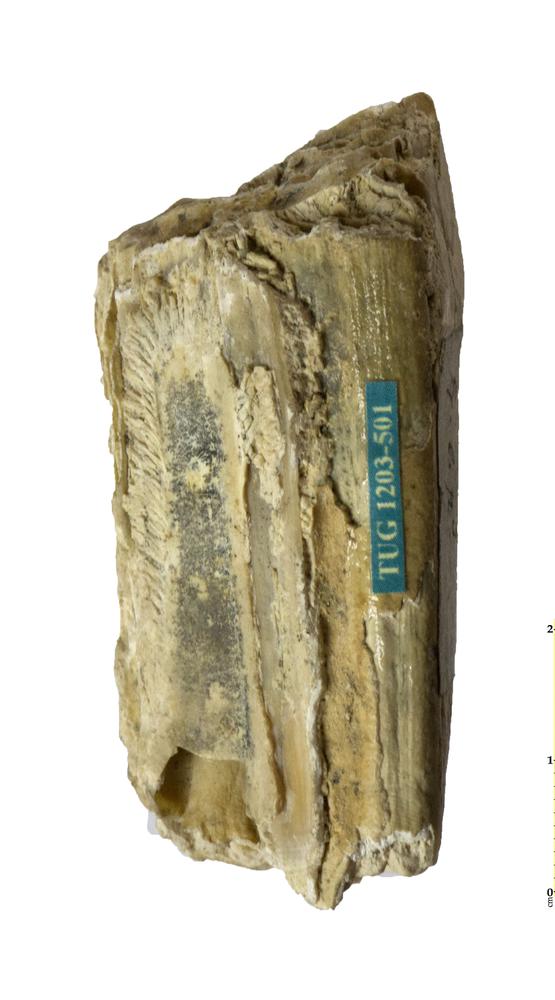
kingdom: Animalia
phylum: Chordata
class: Mammalia
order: Perissodactyla
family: Equidae
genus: Equus
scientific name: Equus
